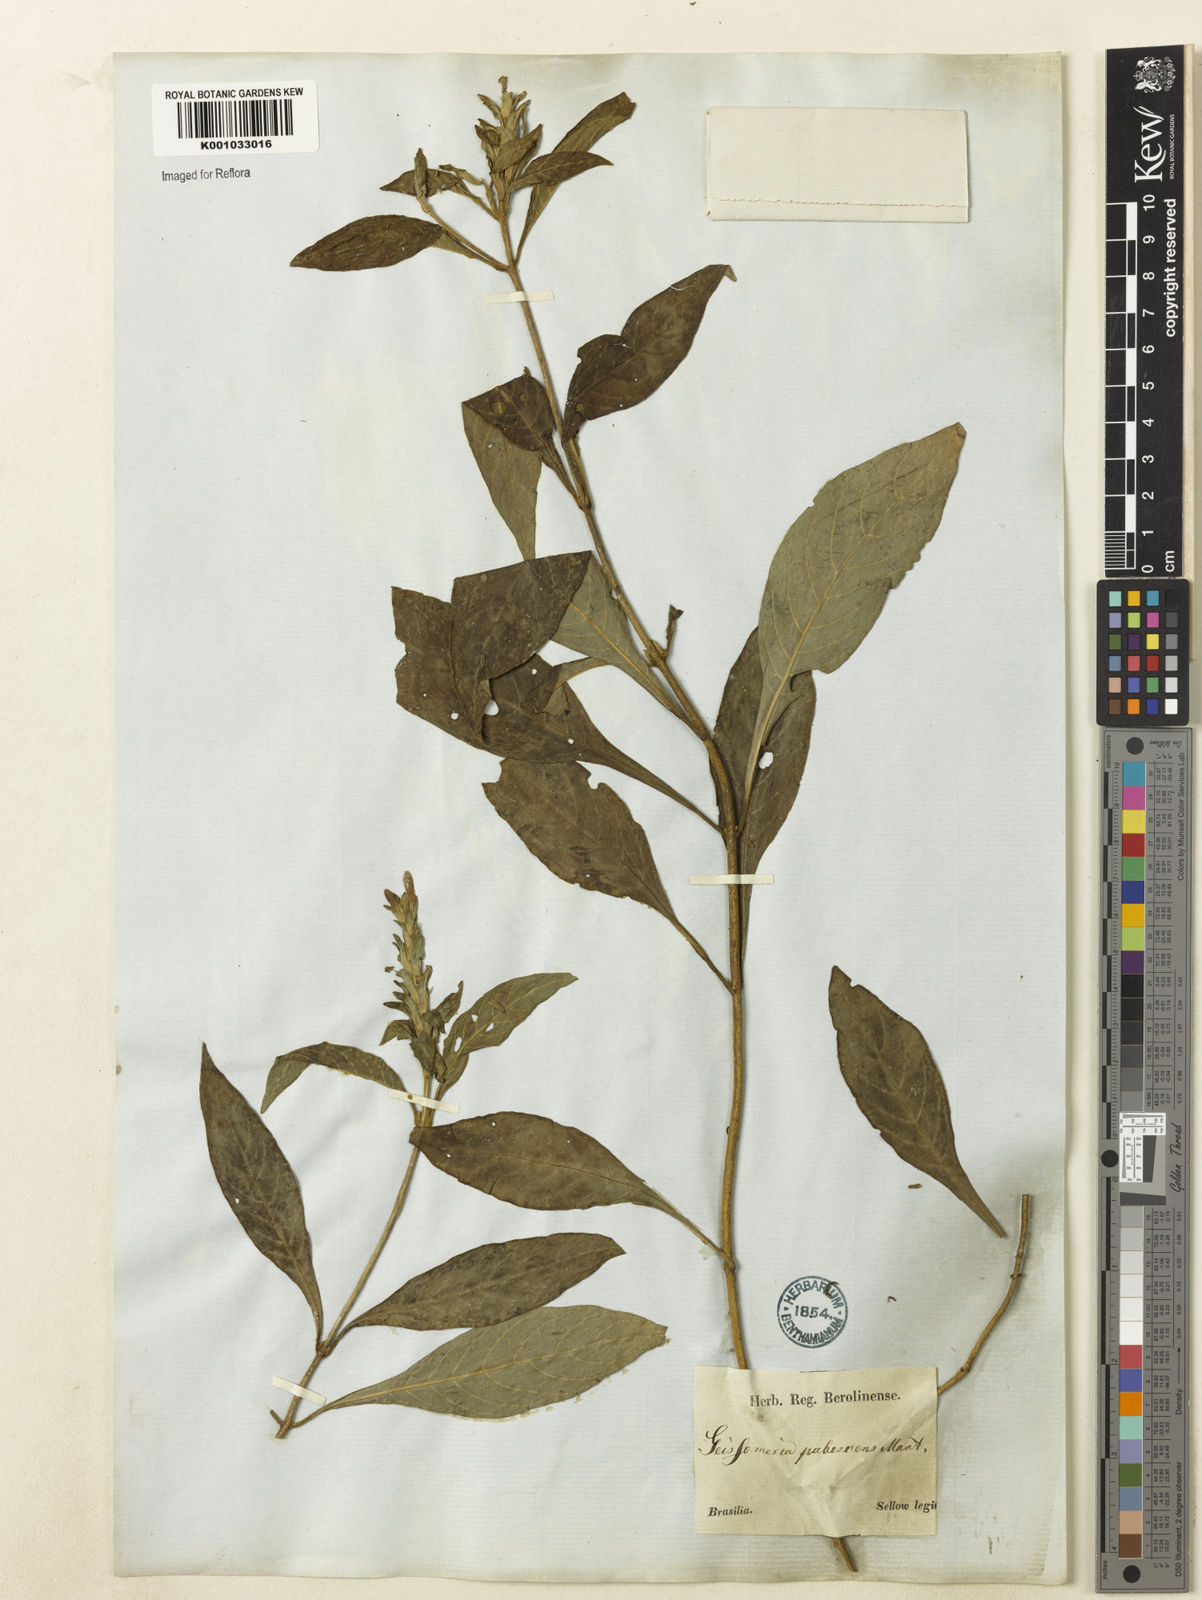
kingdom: Plantae
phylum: Tracheophyta
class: Magnoliopsida
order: Lamiales
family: Acanthaceae
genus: Aphelandra
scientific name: Aphelandra longiflora
